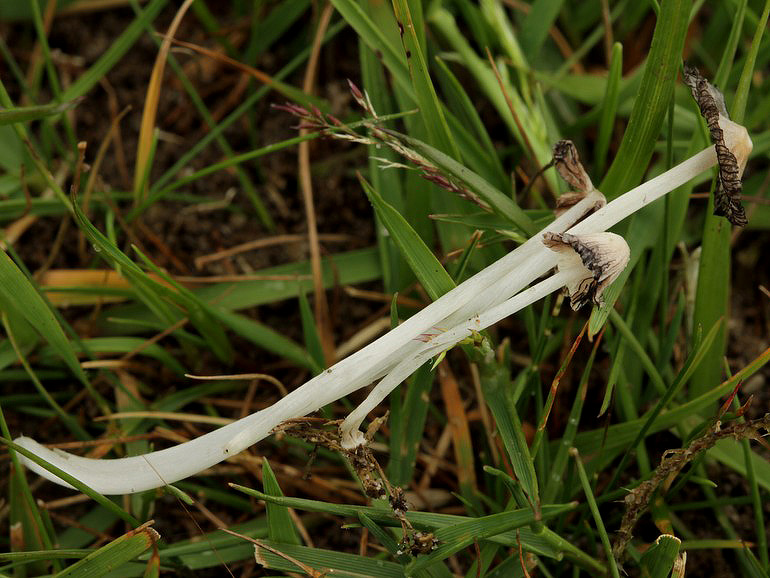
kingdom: Fungi
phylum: Basidiomycota
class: Agaricomycetes
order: Agaricales
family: Psathyrellaceae
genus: Coprinopsis
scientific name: Coprinopsis phaeospora
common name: fælled-blækhat
